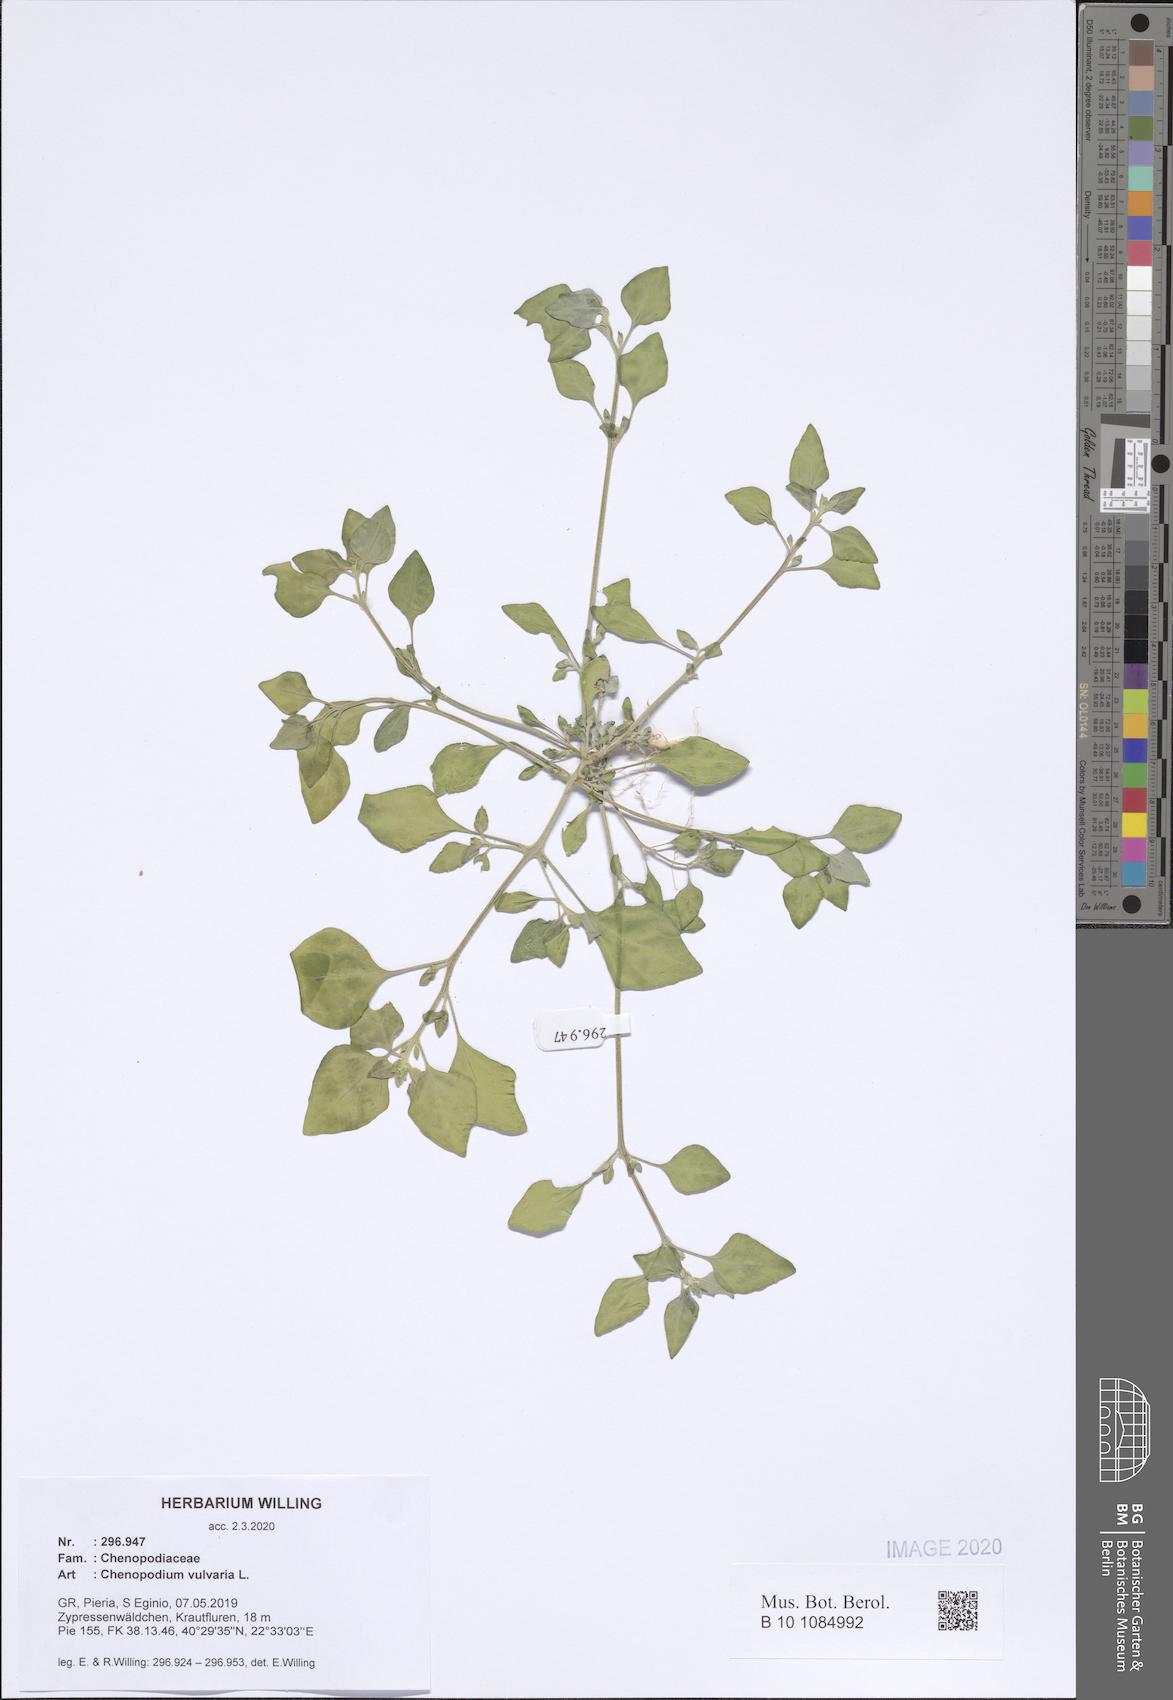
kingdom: Plantae
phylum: Tracheophyta
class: Magnoliopsida
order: Caryophyllales
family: Amaranthaceae
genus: Chenopodium
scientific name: Chenopodium vulvaria
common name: Stinking goosefoot
